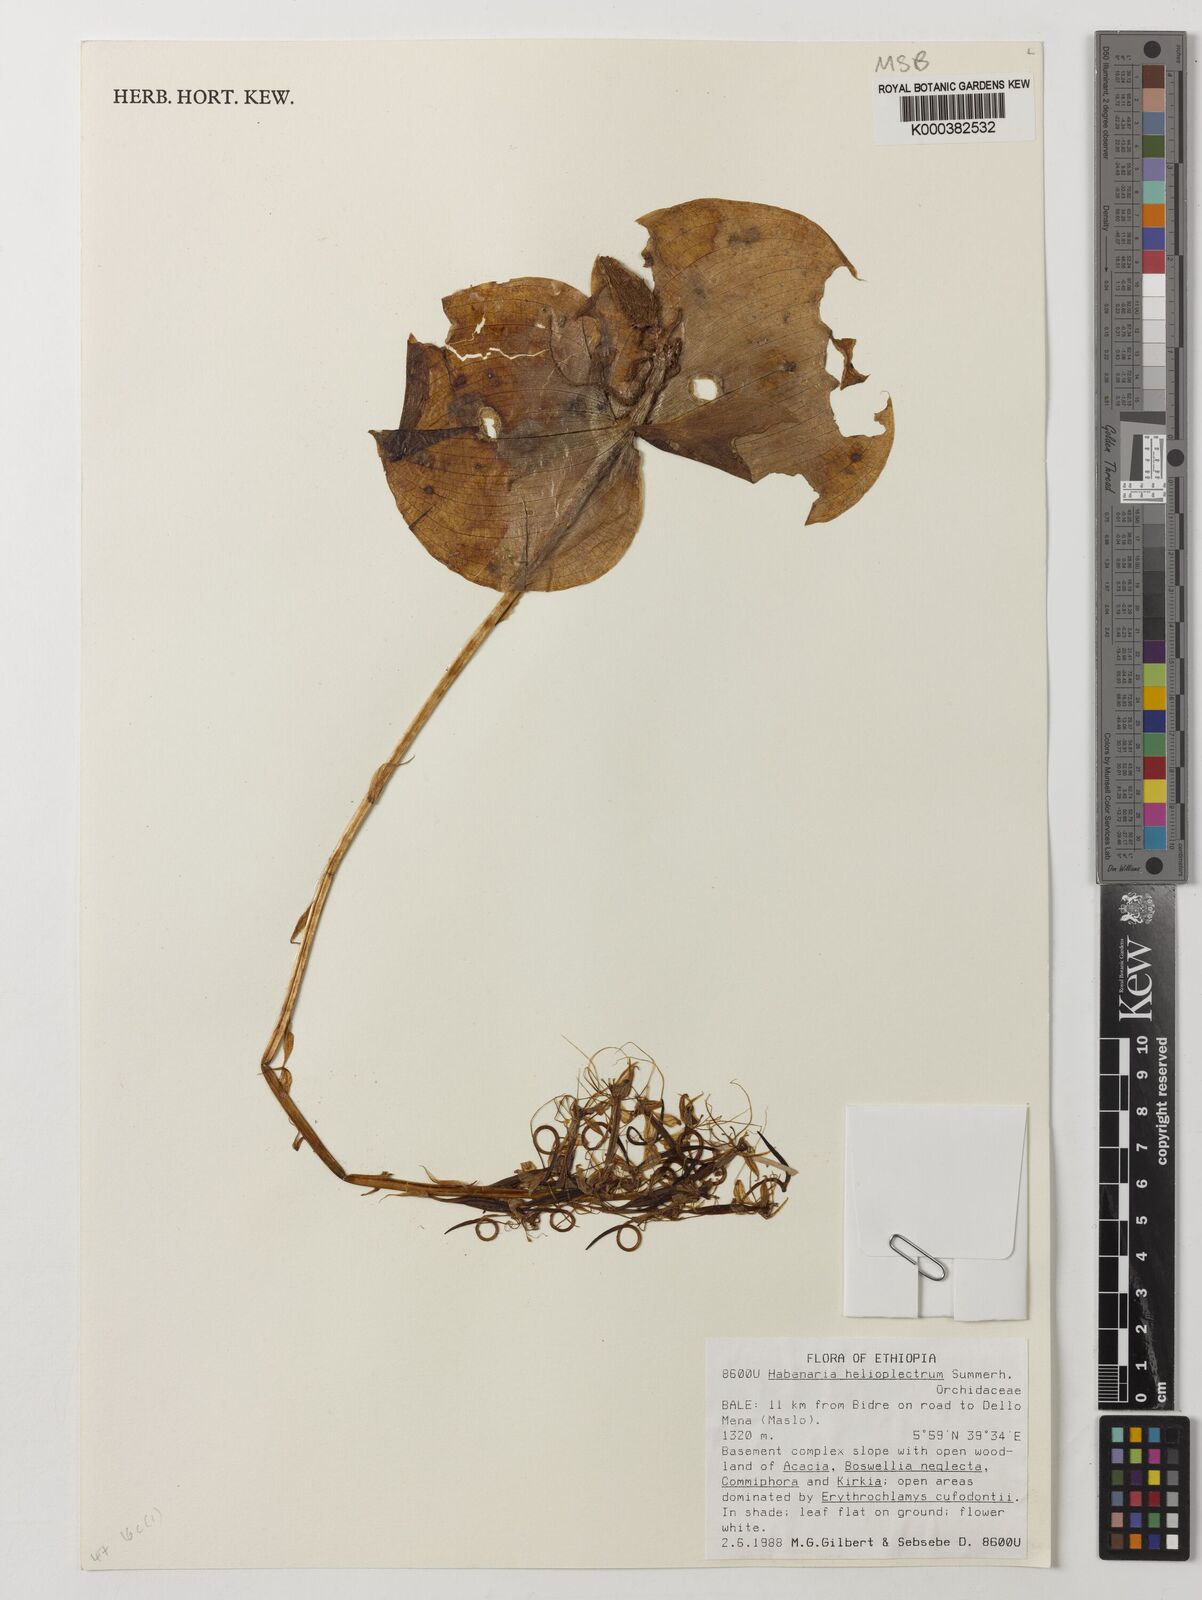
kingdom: Plantae
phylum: Tracheophyta
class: Liliopsida
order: Asparagales
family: Orchidaceae
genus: Habenaria
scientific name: Habenaria helicoplectrum
